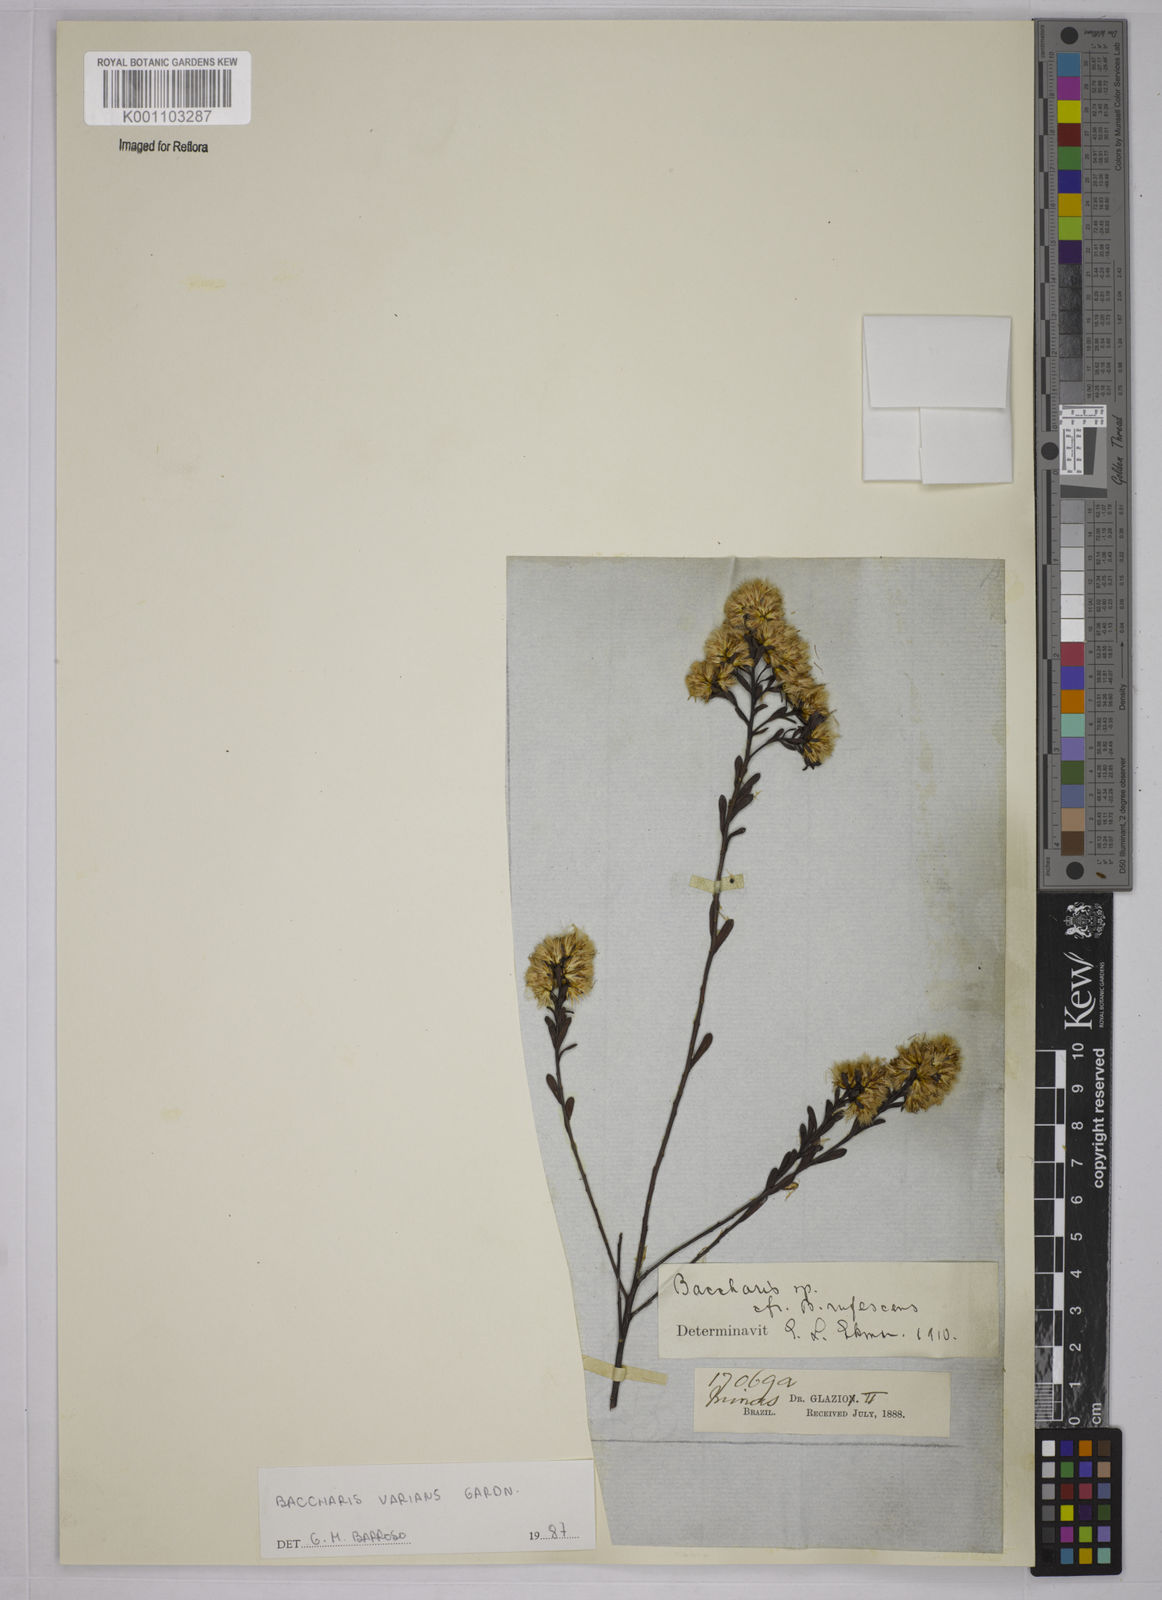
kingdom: Plantae
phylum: Tracheophyta
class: Magnoliopsida
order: Asterales
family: Asteraceae
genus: Baccharis
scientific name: Baccharis varians
